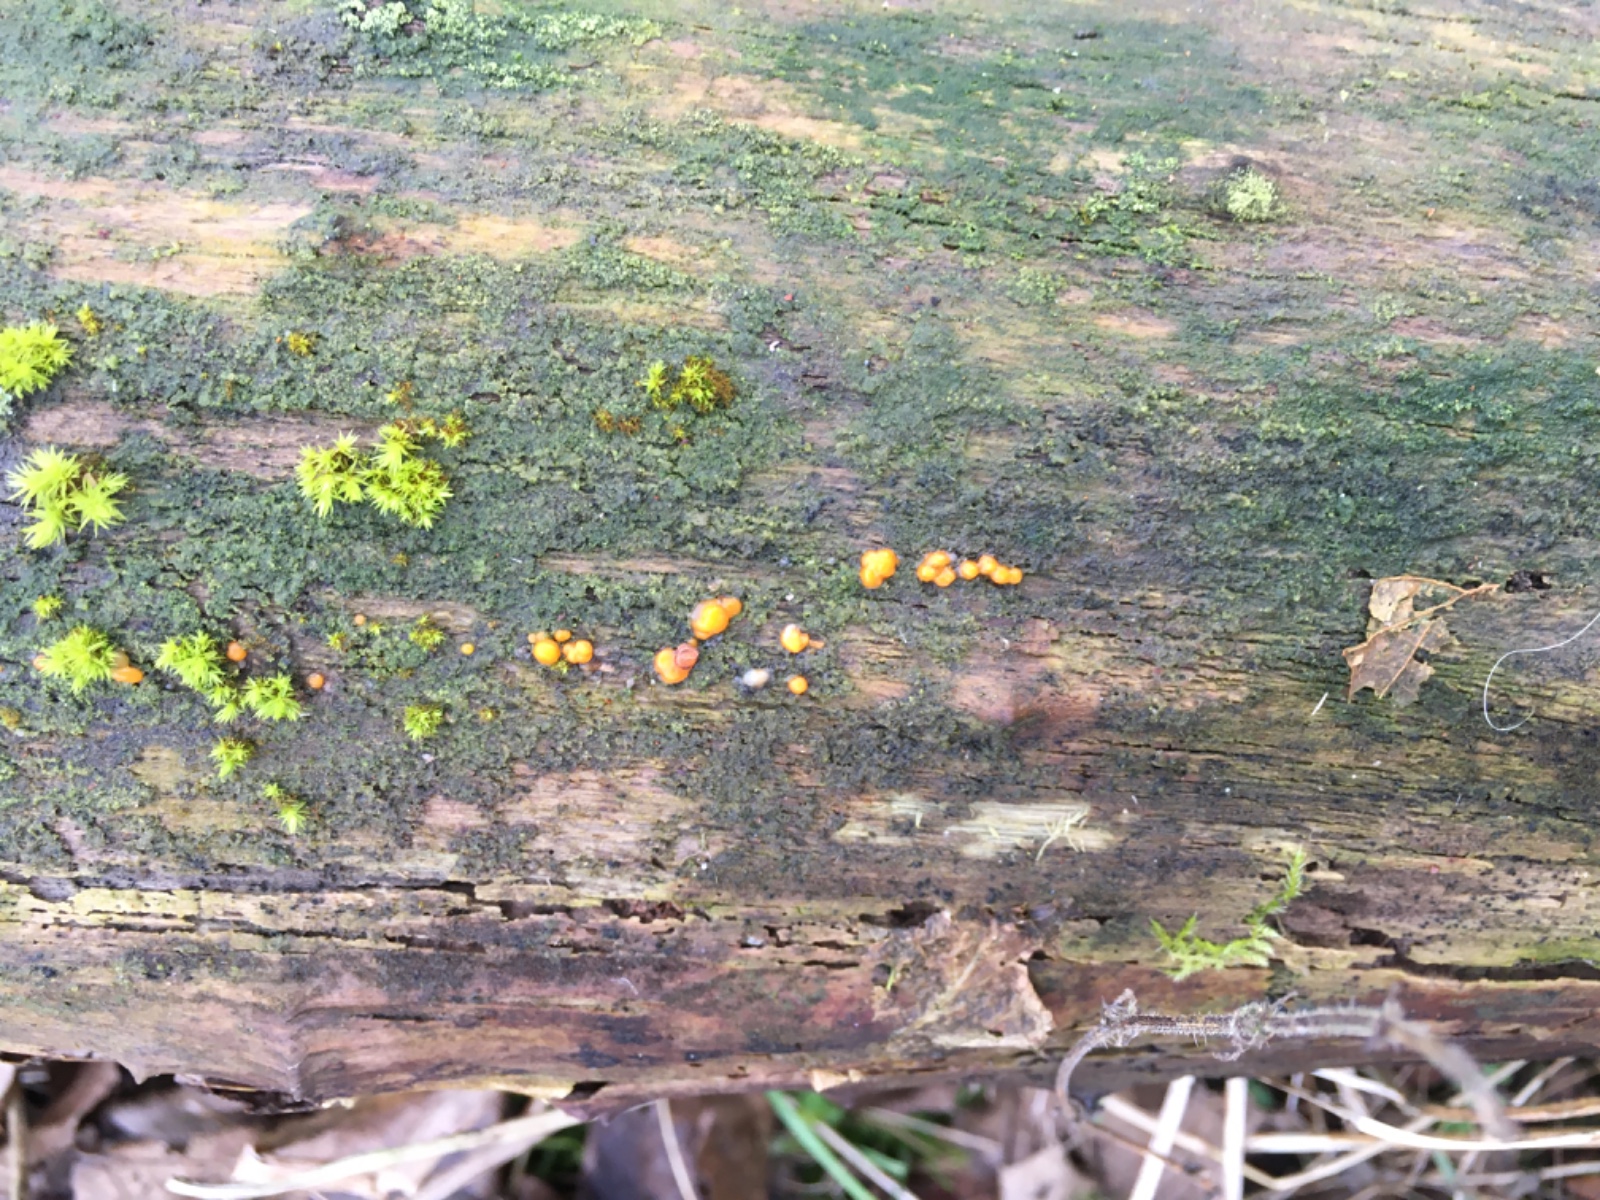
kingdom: Fungi
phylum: Basidiomycota
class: Dacrymycetes
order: Dacrymycetales
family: Dacrymycetaceae
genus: Dacrymyces
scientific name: Dacrymyces stillatus
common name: almindelig tåresvamp
